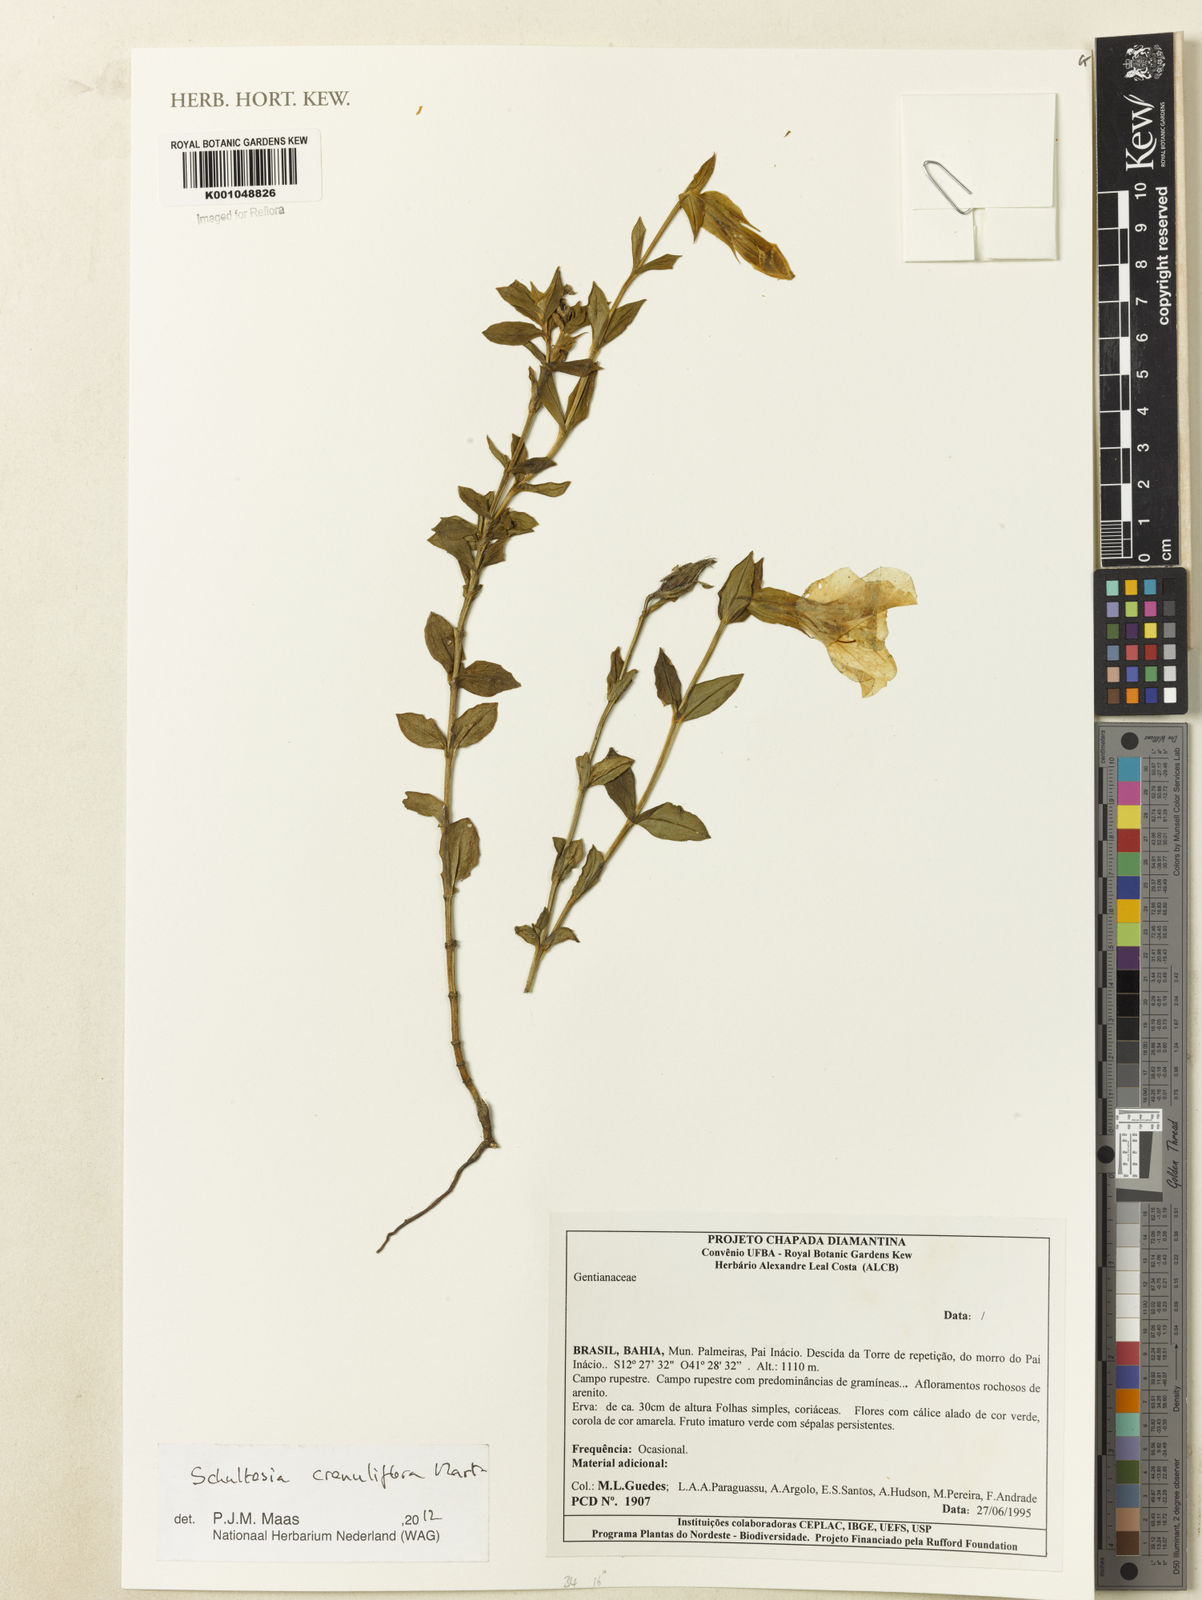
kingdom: Plantae
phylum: Tracheophyta
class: Magnoliopsida
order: Gentianales
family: Gentianaceae
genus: Schultesia
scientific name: Schultesia crenuliflora
